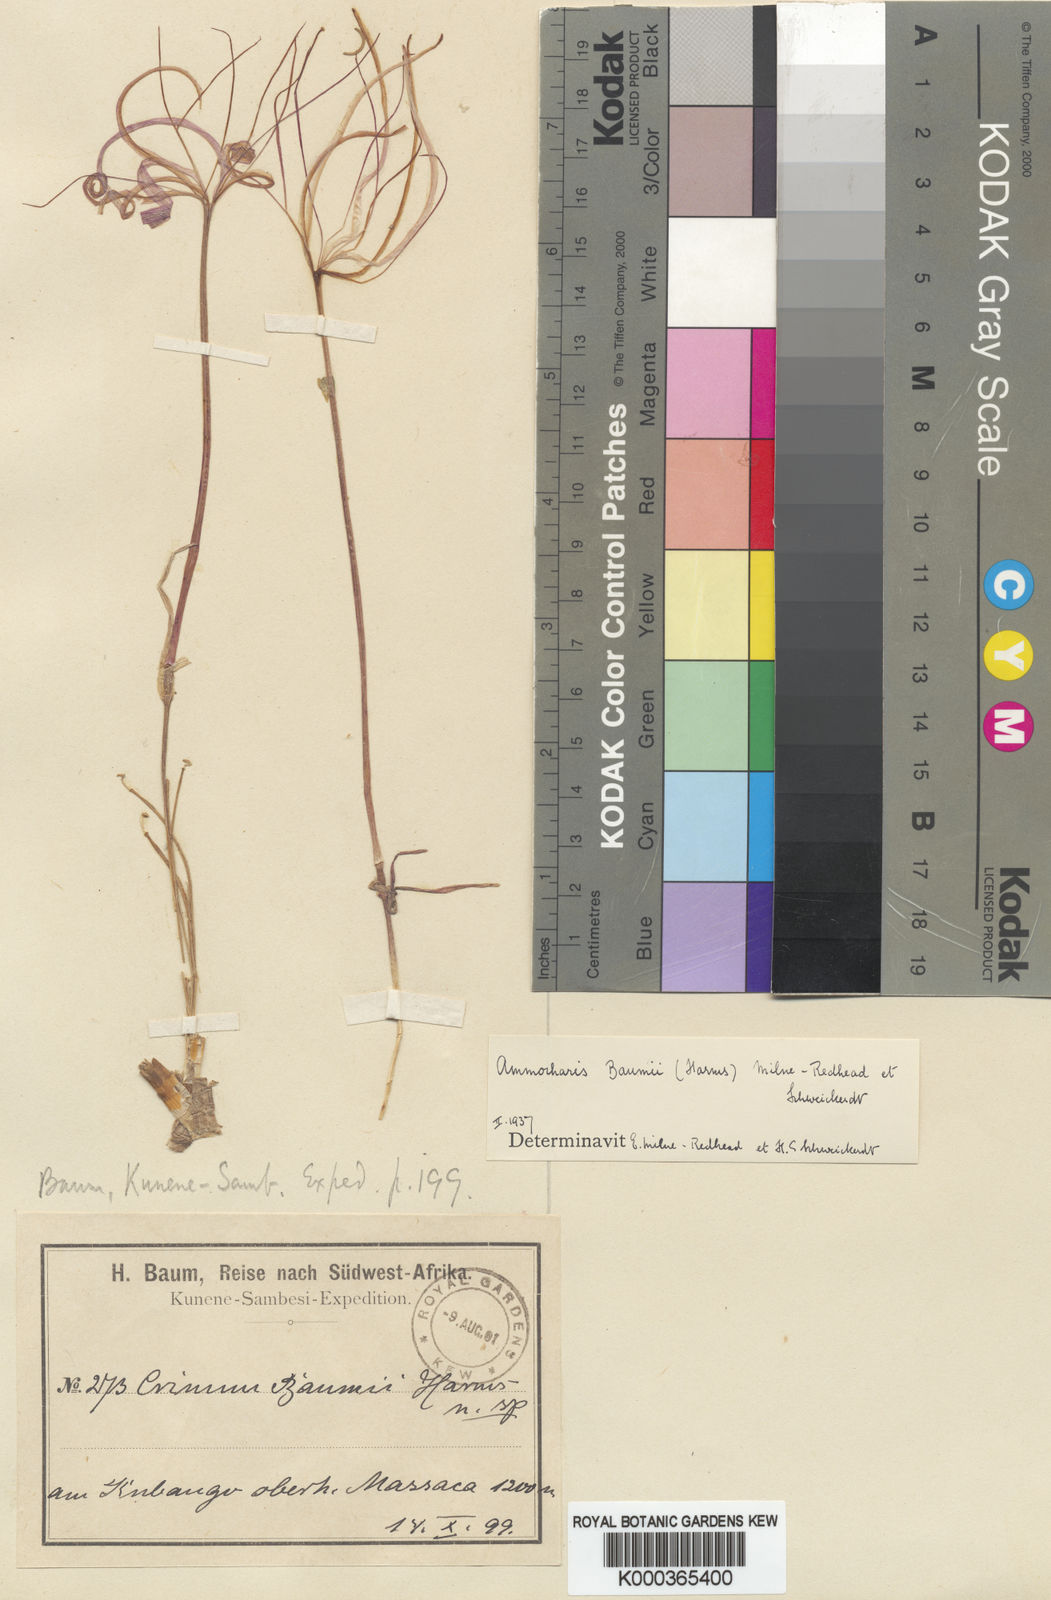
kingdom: Plantae
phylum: Tracheophyta
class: Liliopsida
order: Asparagales
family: Amaryllidaceae
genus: Ammocharis
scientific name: Ammocharis baumii
